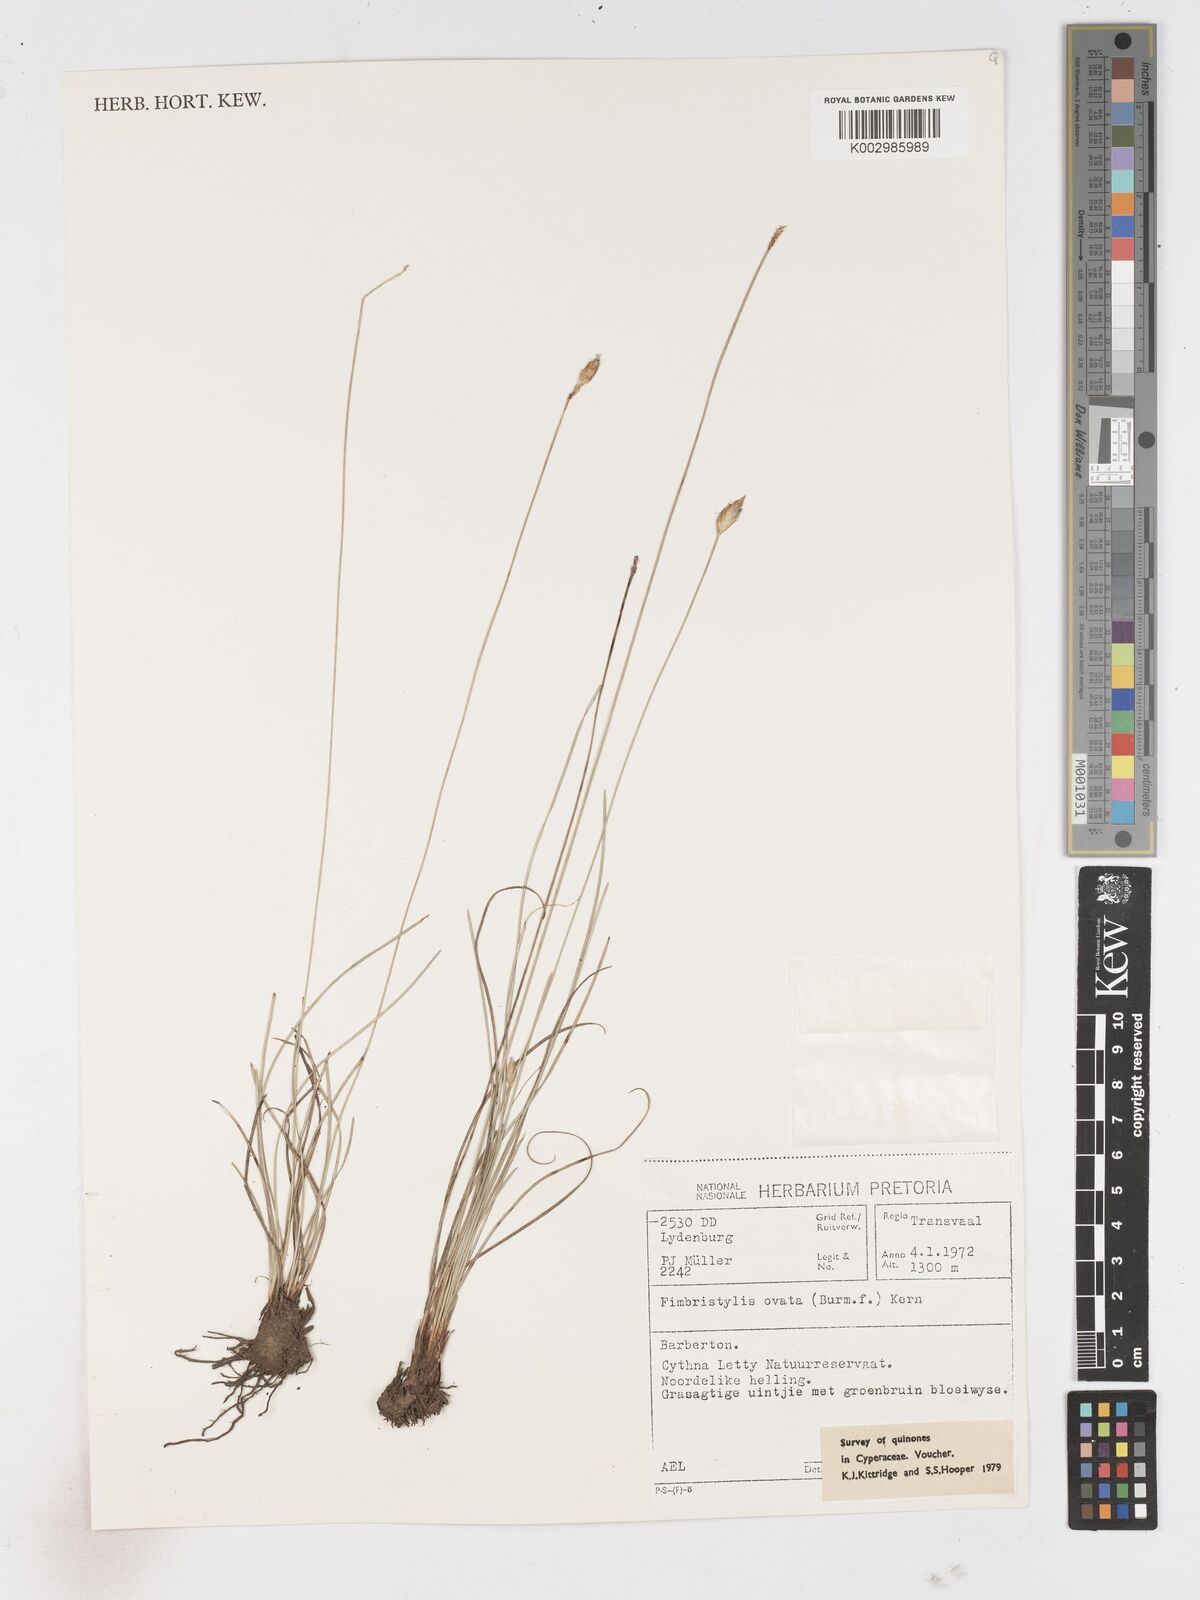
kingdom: Plantae
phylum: Tracheophyta
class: Liliopsida
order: Poales
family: Cyperaceae
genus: Abildgaardia
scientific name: Abildgaardia ovata
